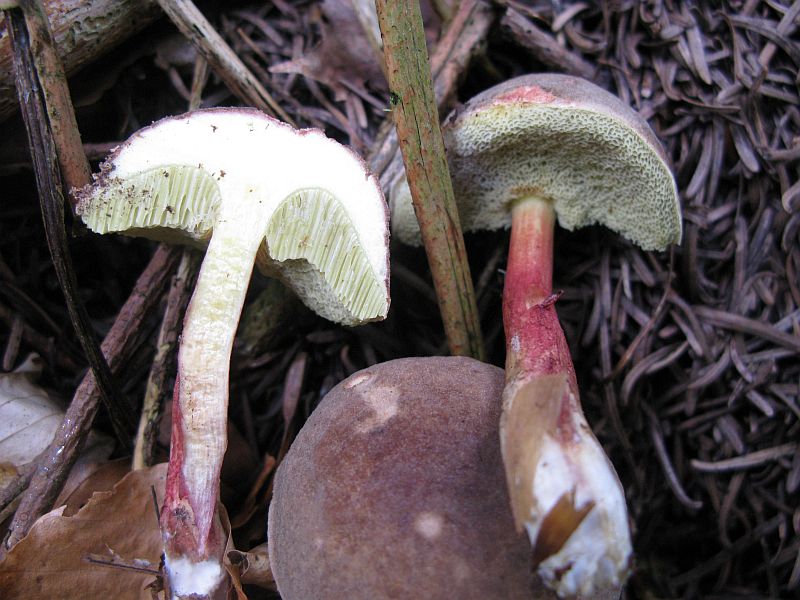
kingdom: Fungi
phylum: Basidiomycota
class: Agaricomycetes
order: Boletales
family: Boletaceae
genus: Xerocomellus
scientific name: Xerocomellus chrysenteron
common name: rødsprukken rørhat
